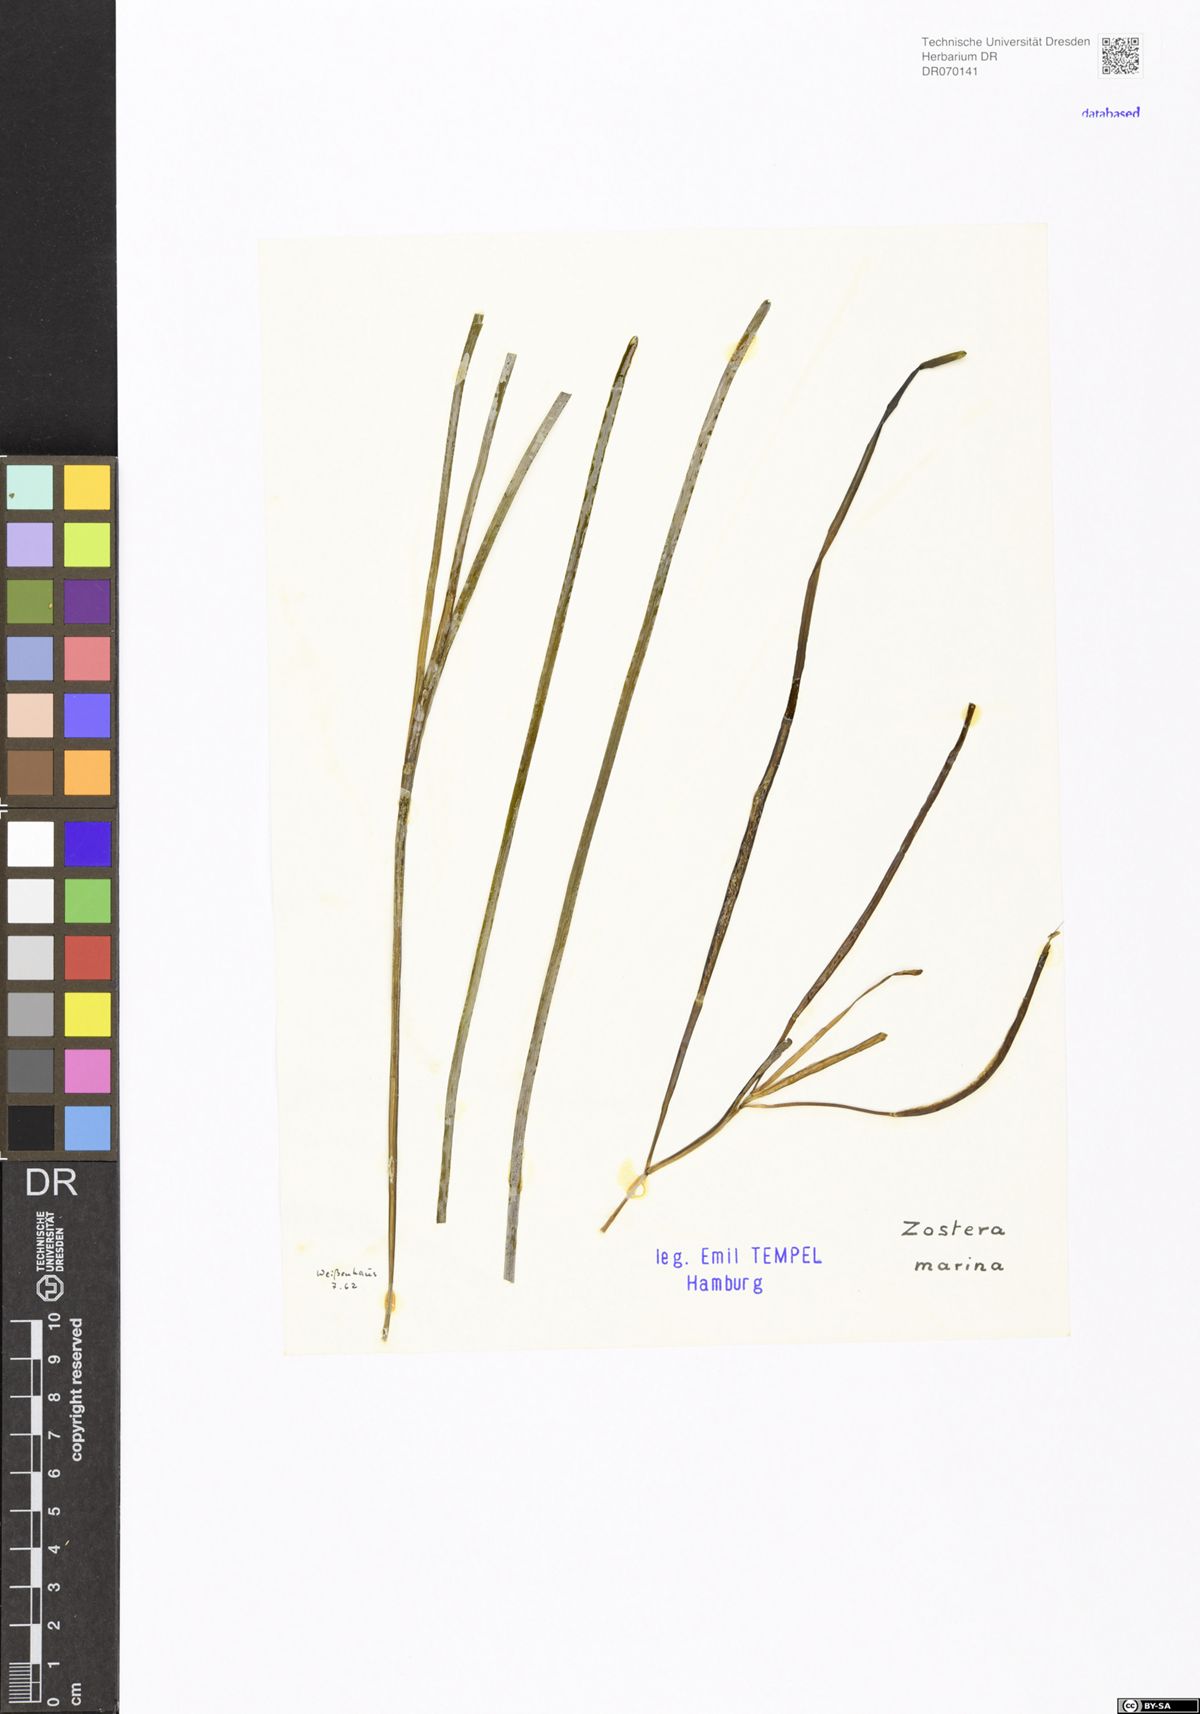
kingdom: Plantae
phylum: Tracheophyta
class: Liliopsida
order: Alismatales
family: Zosteraceae
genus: Zostera
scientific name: Zostera marina
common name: Eelgrass
